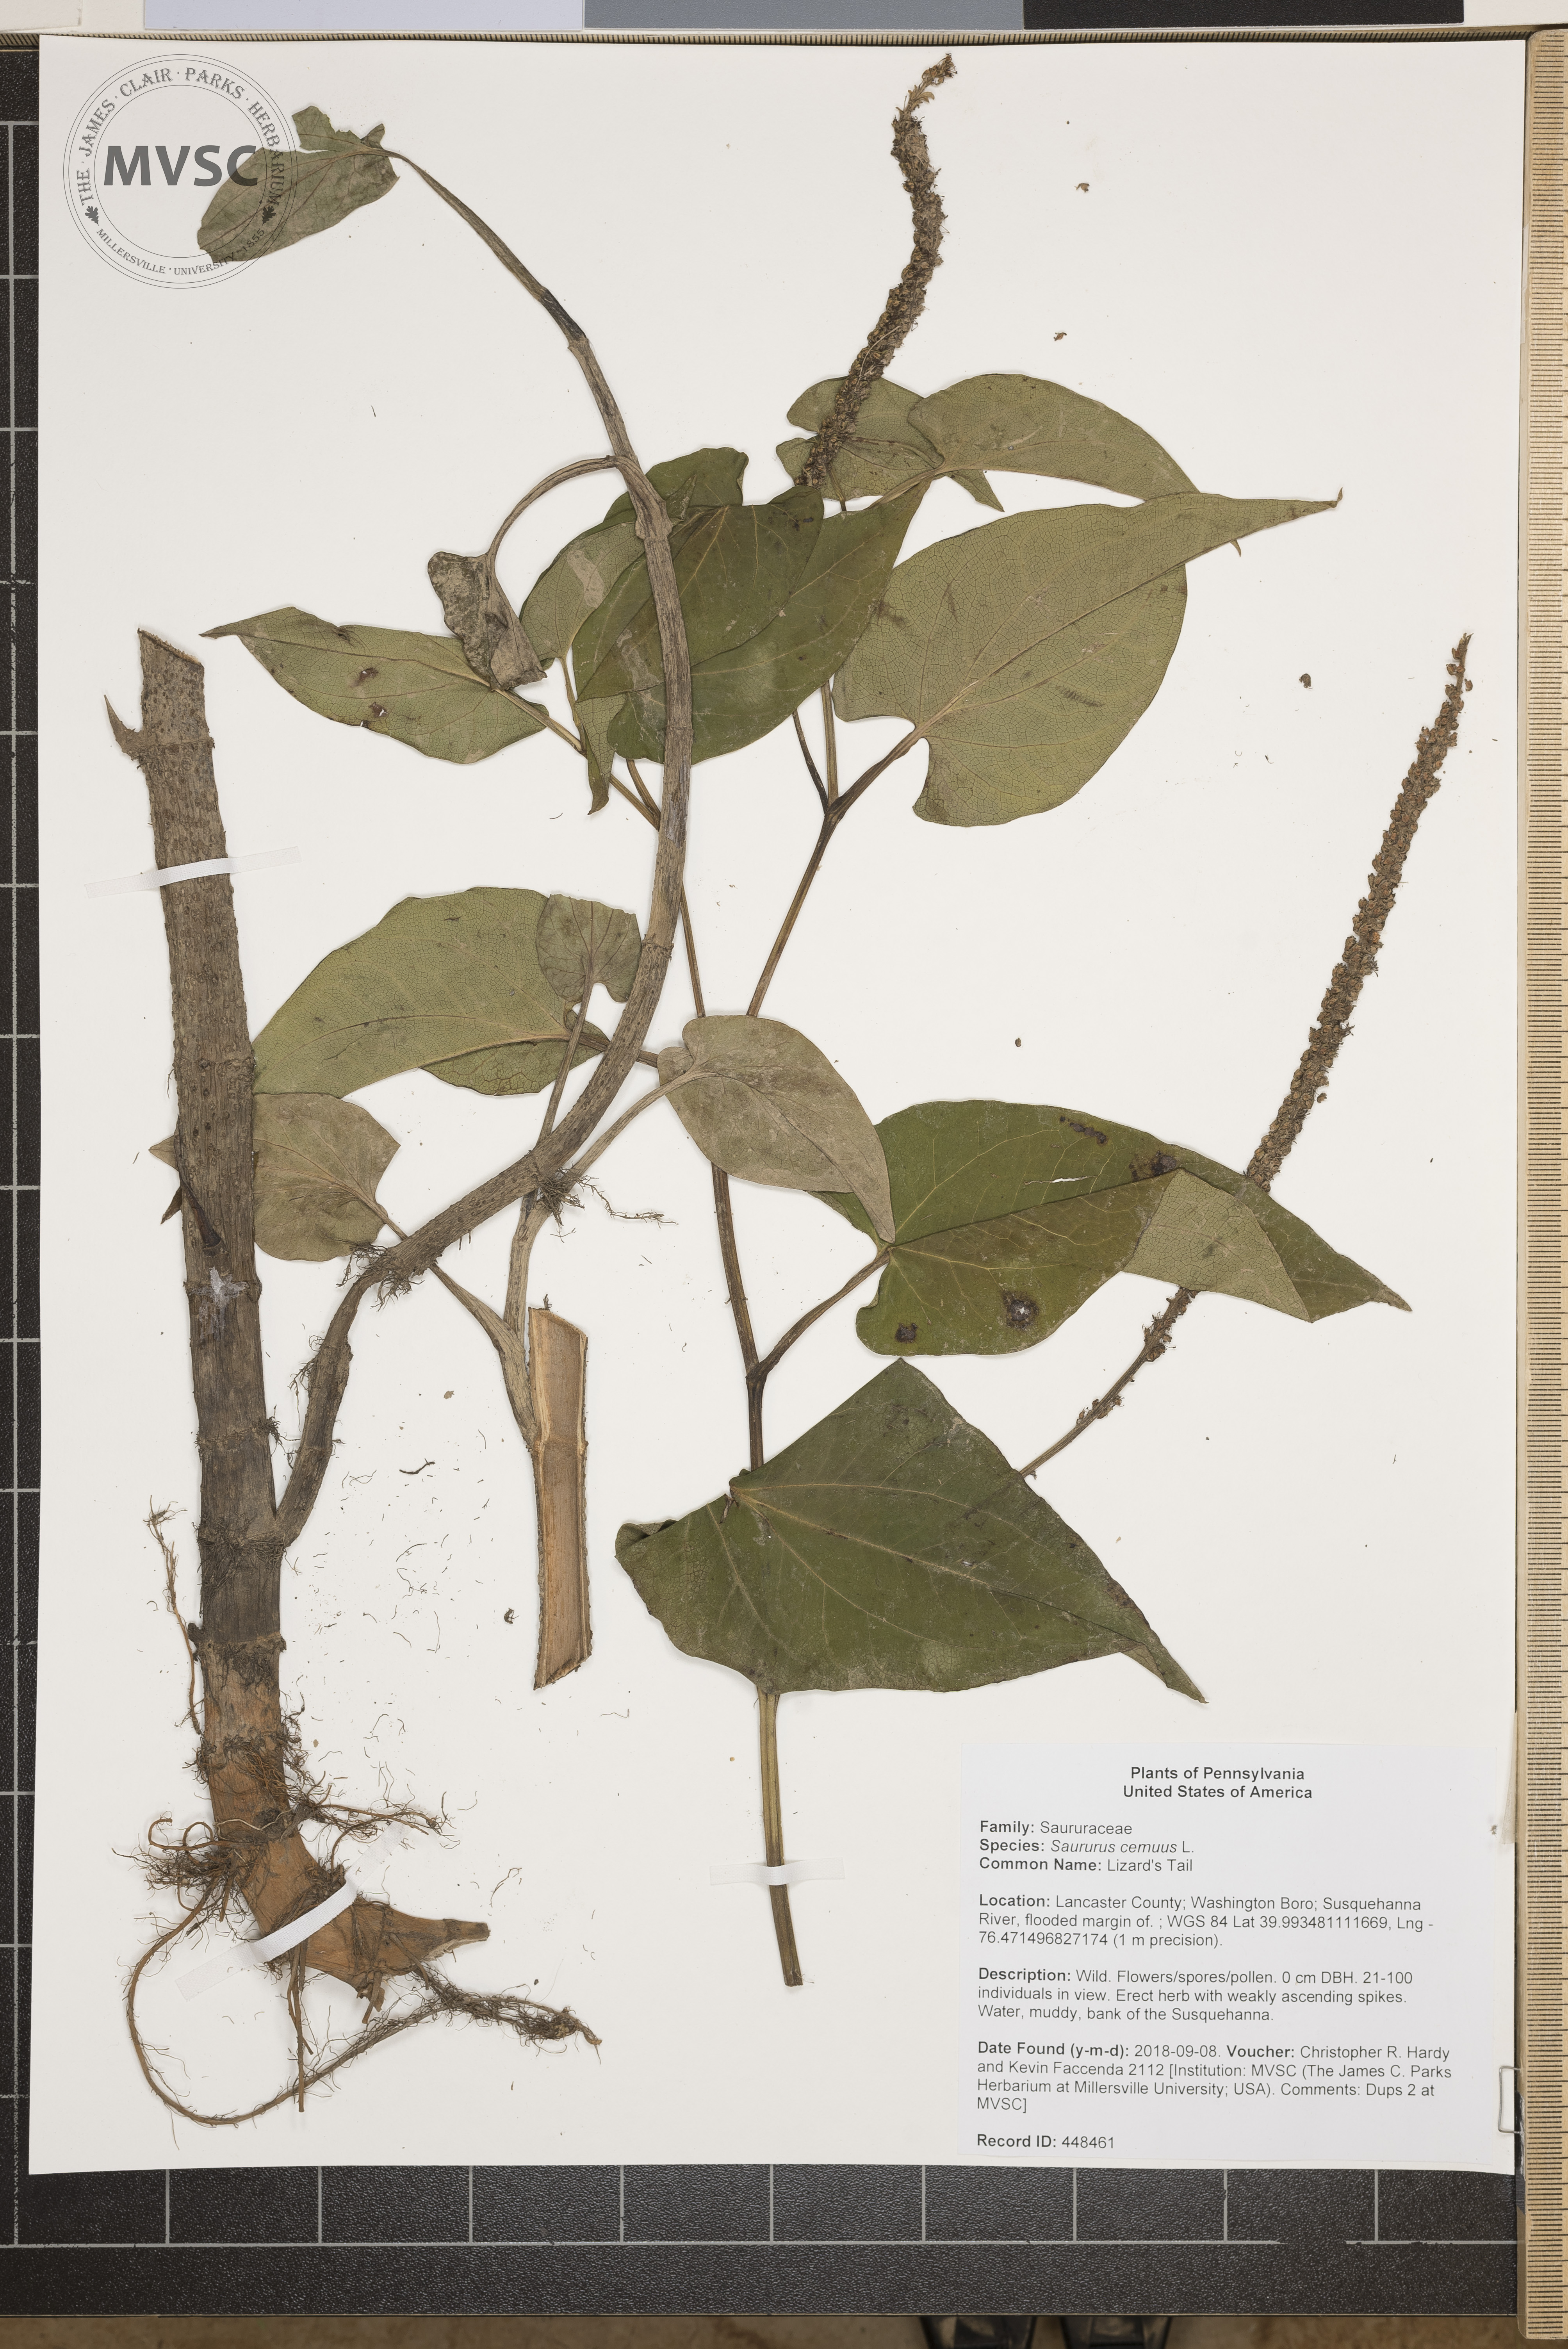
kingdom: Plantae
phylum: Tracheophyta
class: Magnoliopsida
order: Piperales
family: Saururaceae
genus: Saururus
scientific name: Saururus cernuus
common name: Lizard's Tail
